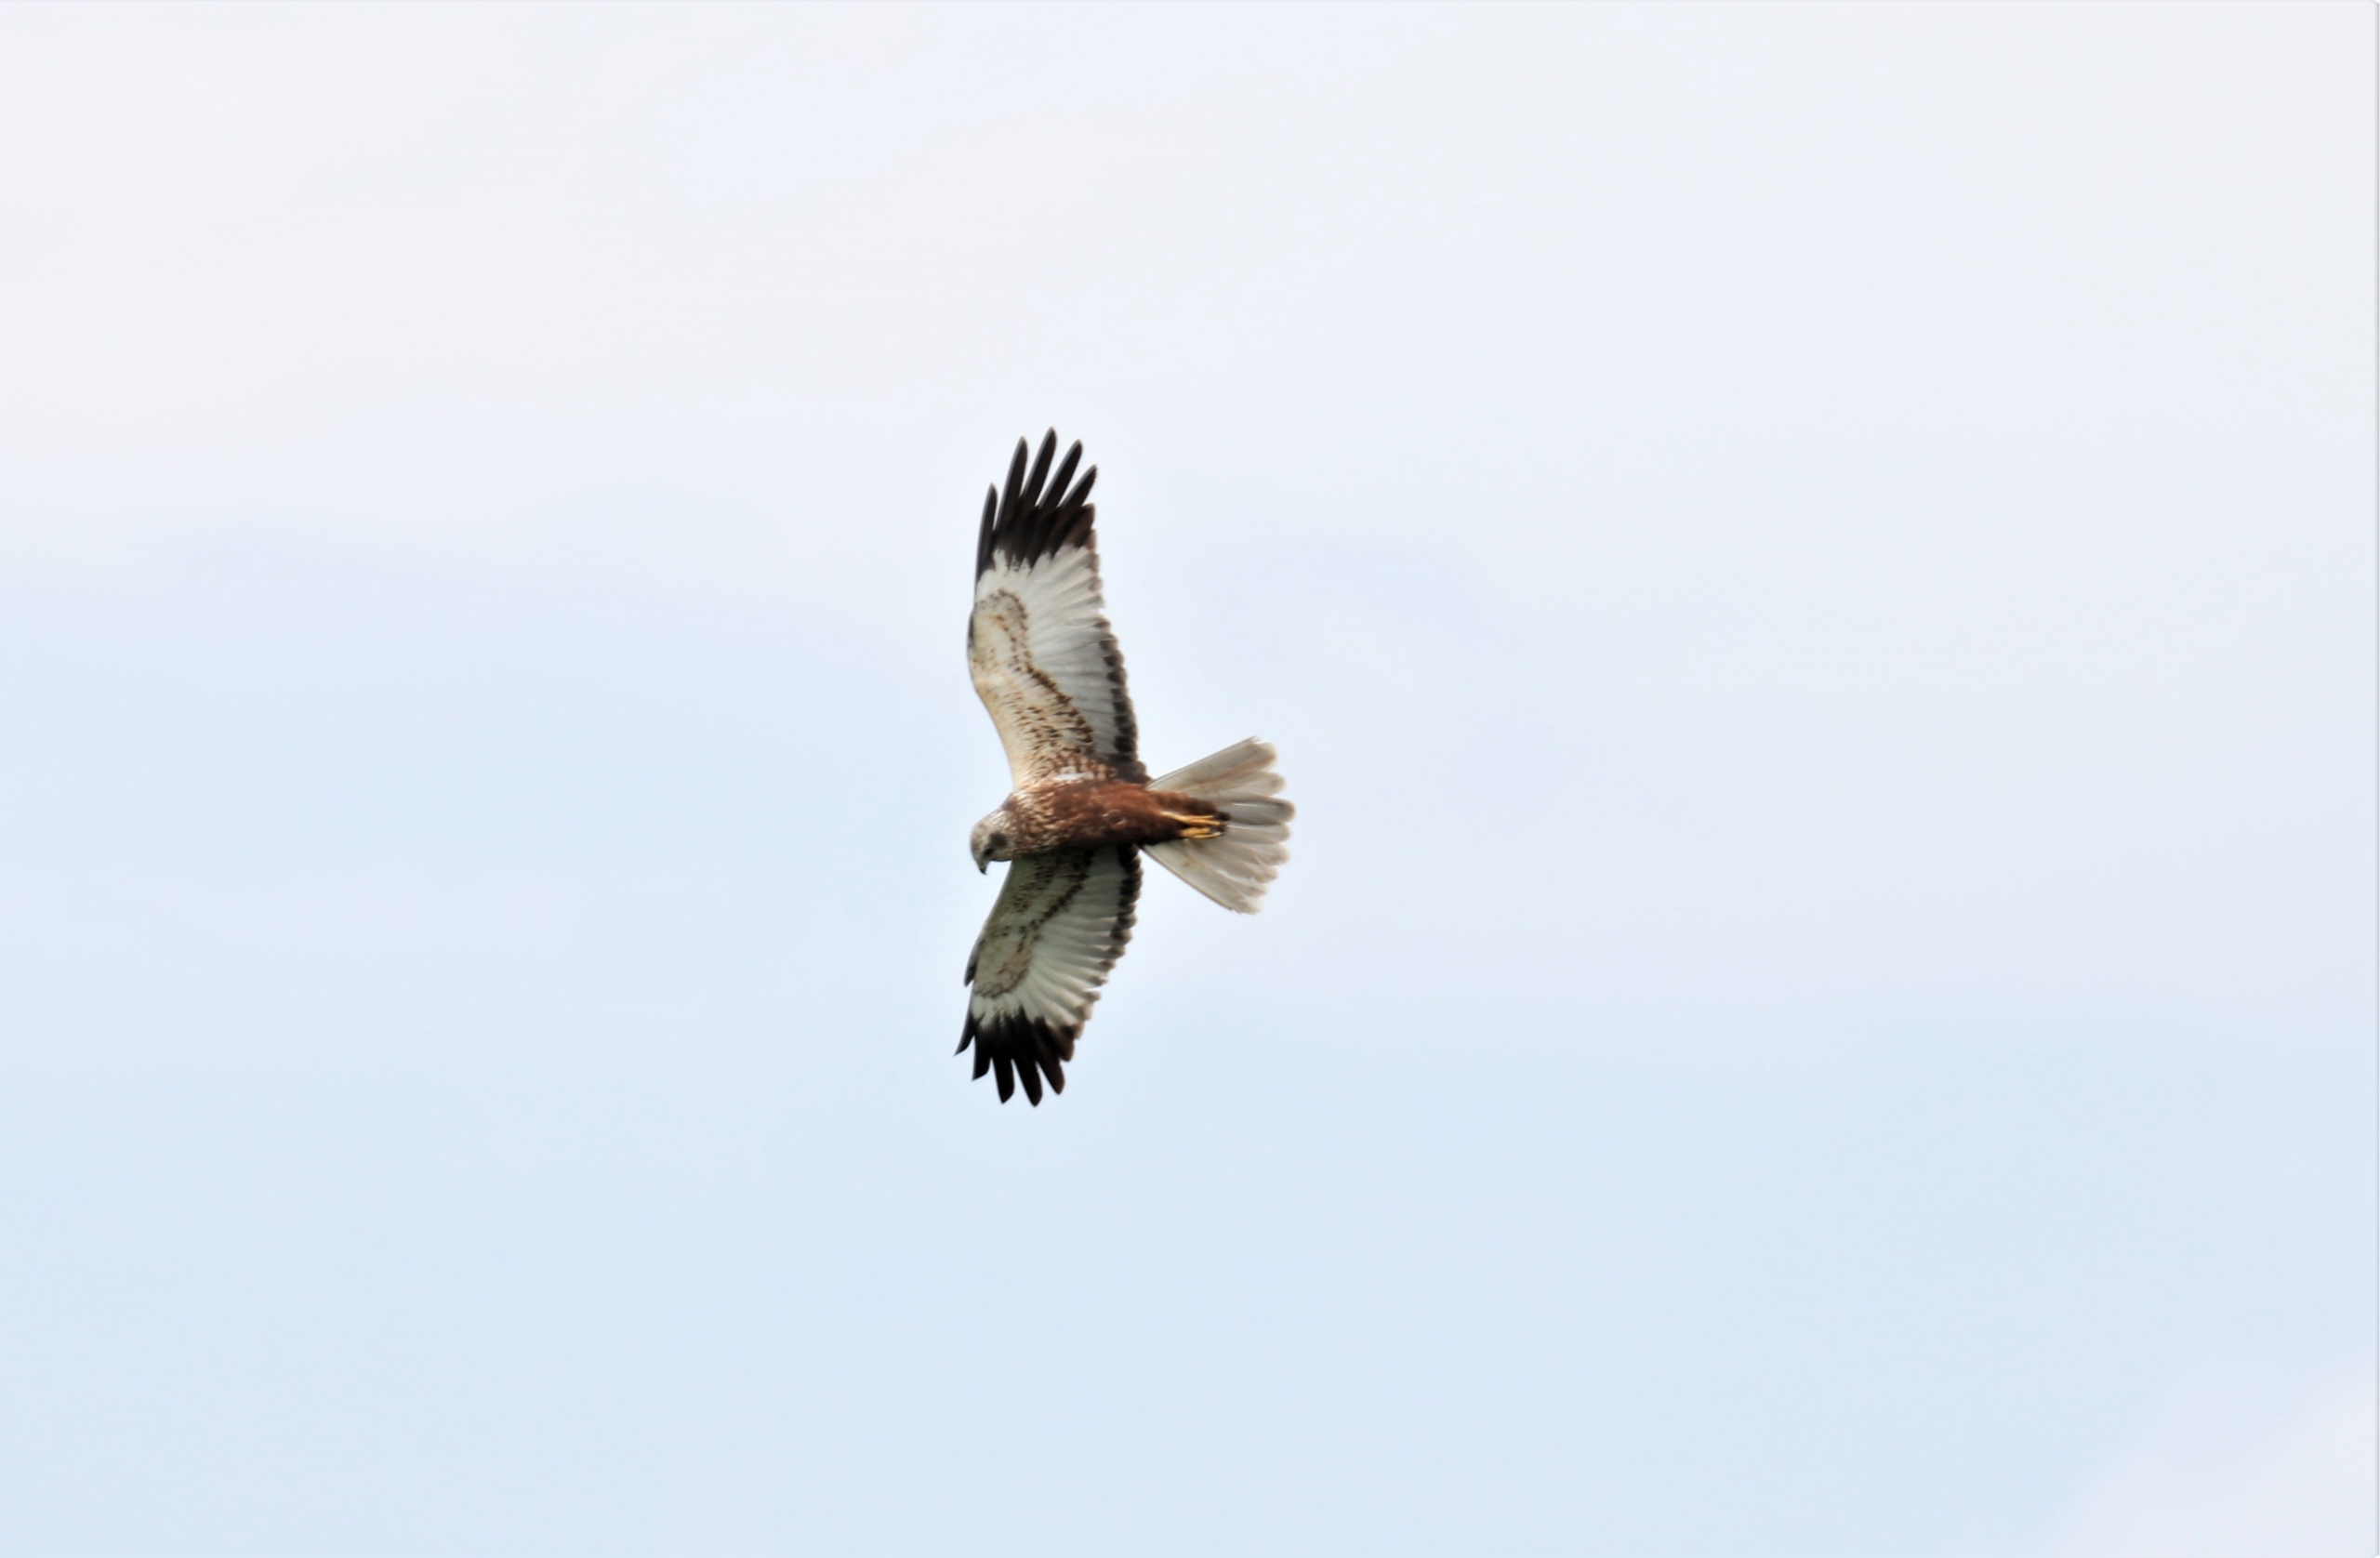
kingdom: Animalia
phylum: Chordata
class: Aves
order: Accipitriformes
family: Accipitridae
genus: Circus
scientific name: Circus aeruginosus
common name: Rørhøg
